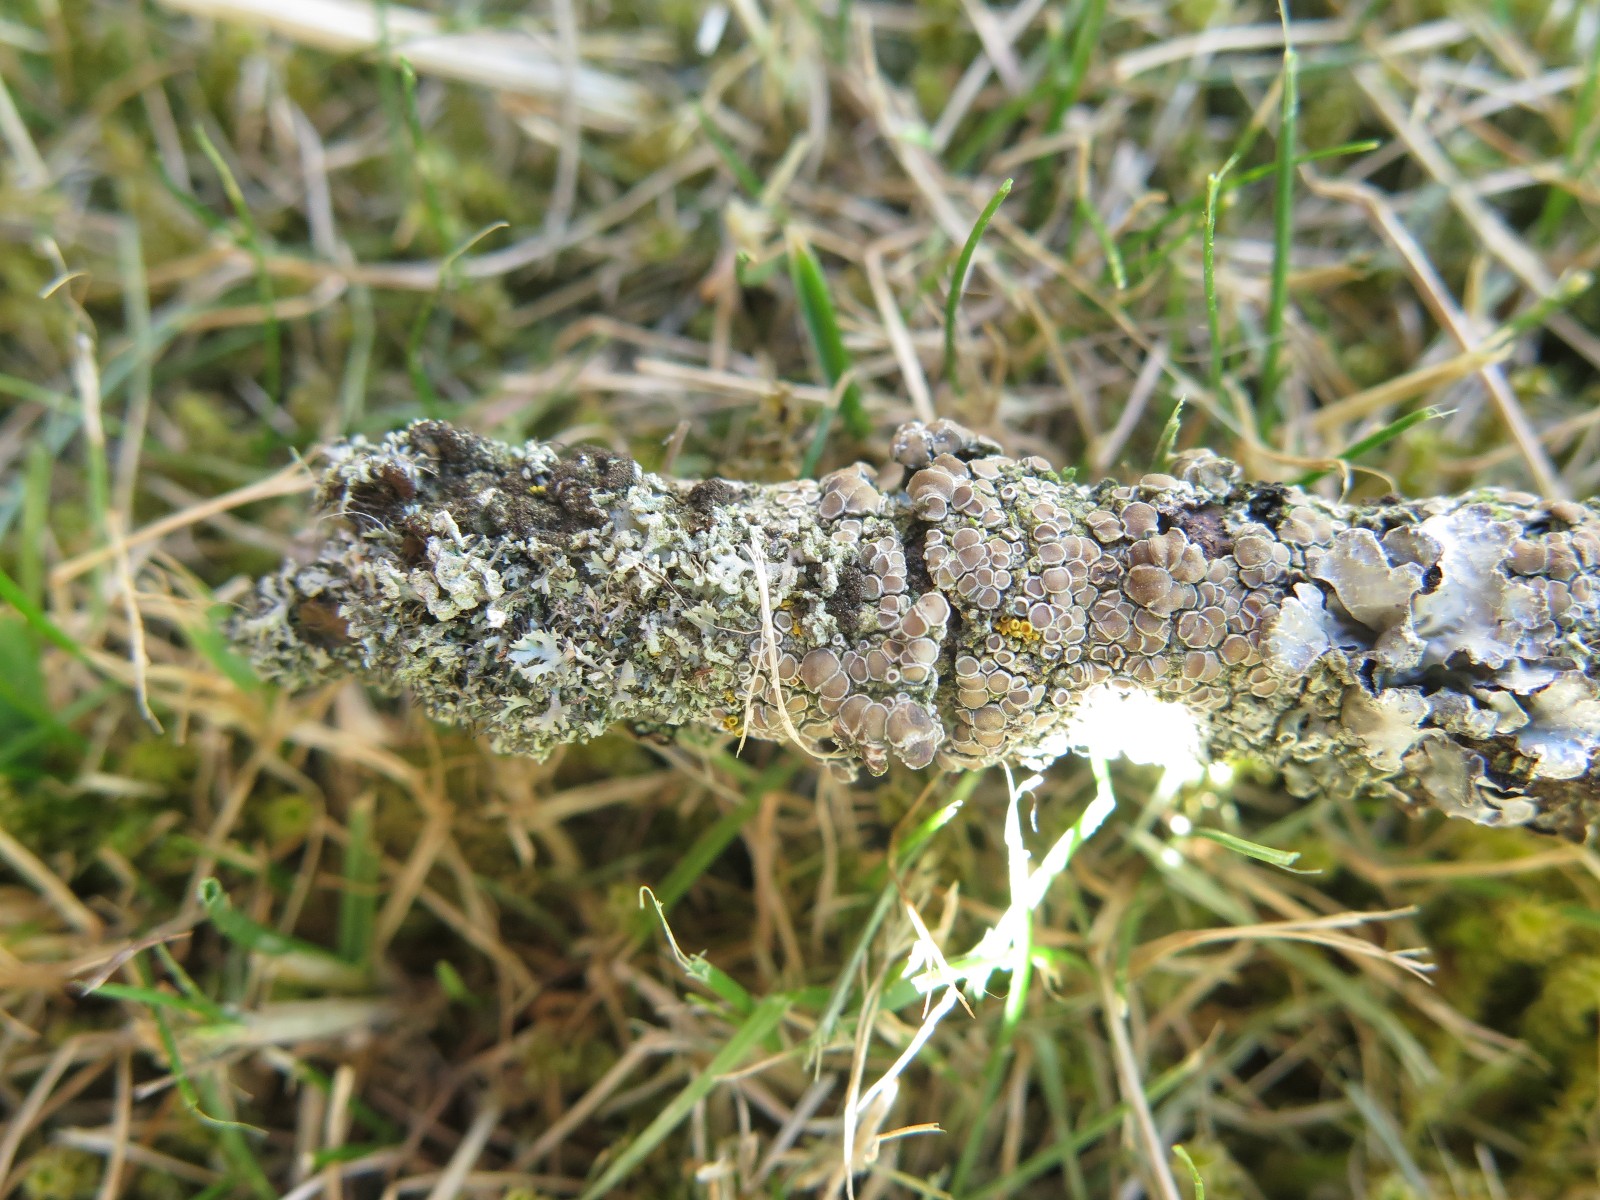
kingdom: Fungi
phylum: Ascomycota
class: Lecanoromycetes
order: Caliciales
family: Physciaceae
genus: Physcia
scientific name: Physcia tenella
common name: spæd rosetlav
